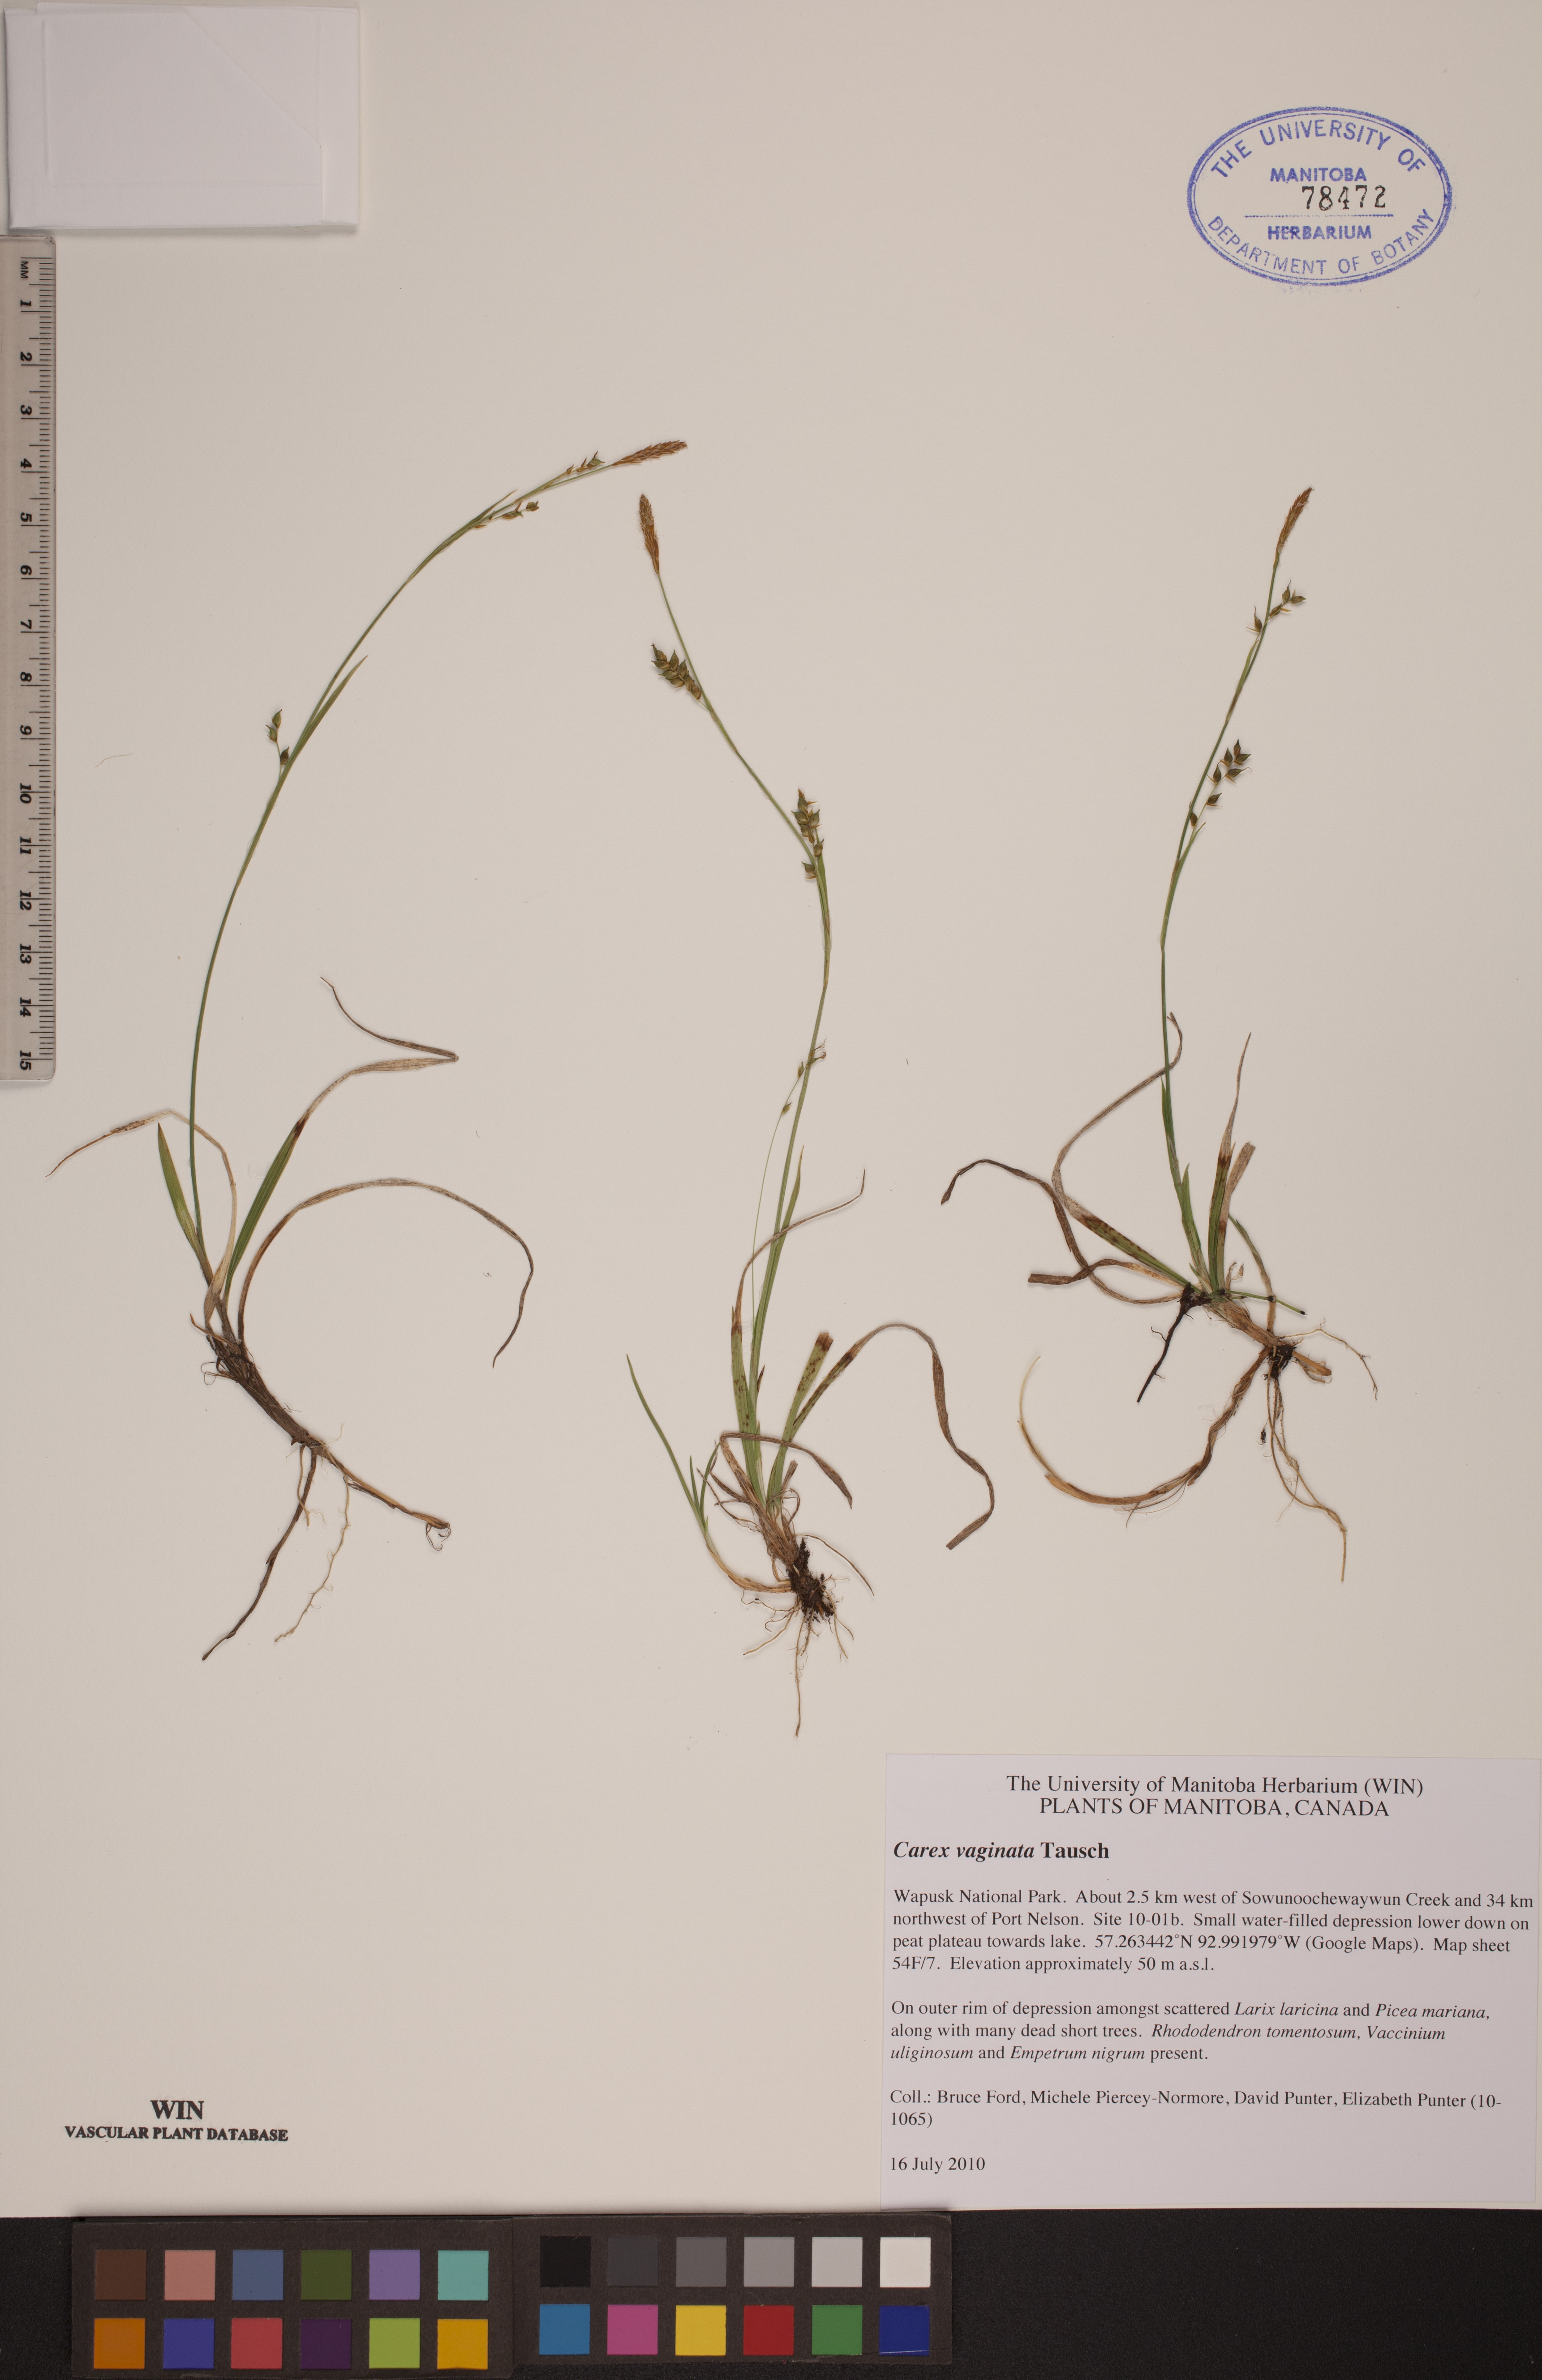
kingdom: Plantae
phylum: Tracheophyta
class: Liliopsida
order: Poales
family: Cyperaceae
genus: Carex
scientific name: Carex vaginata
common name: Sheathed sedge
